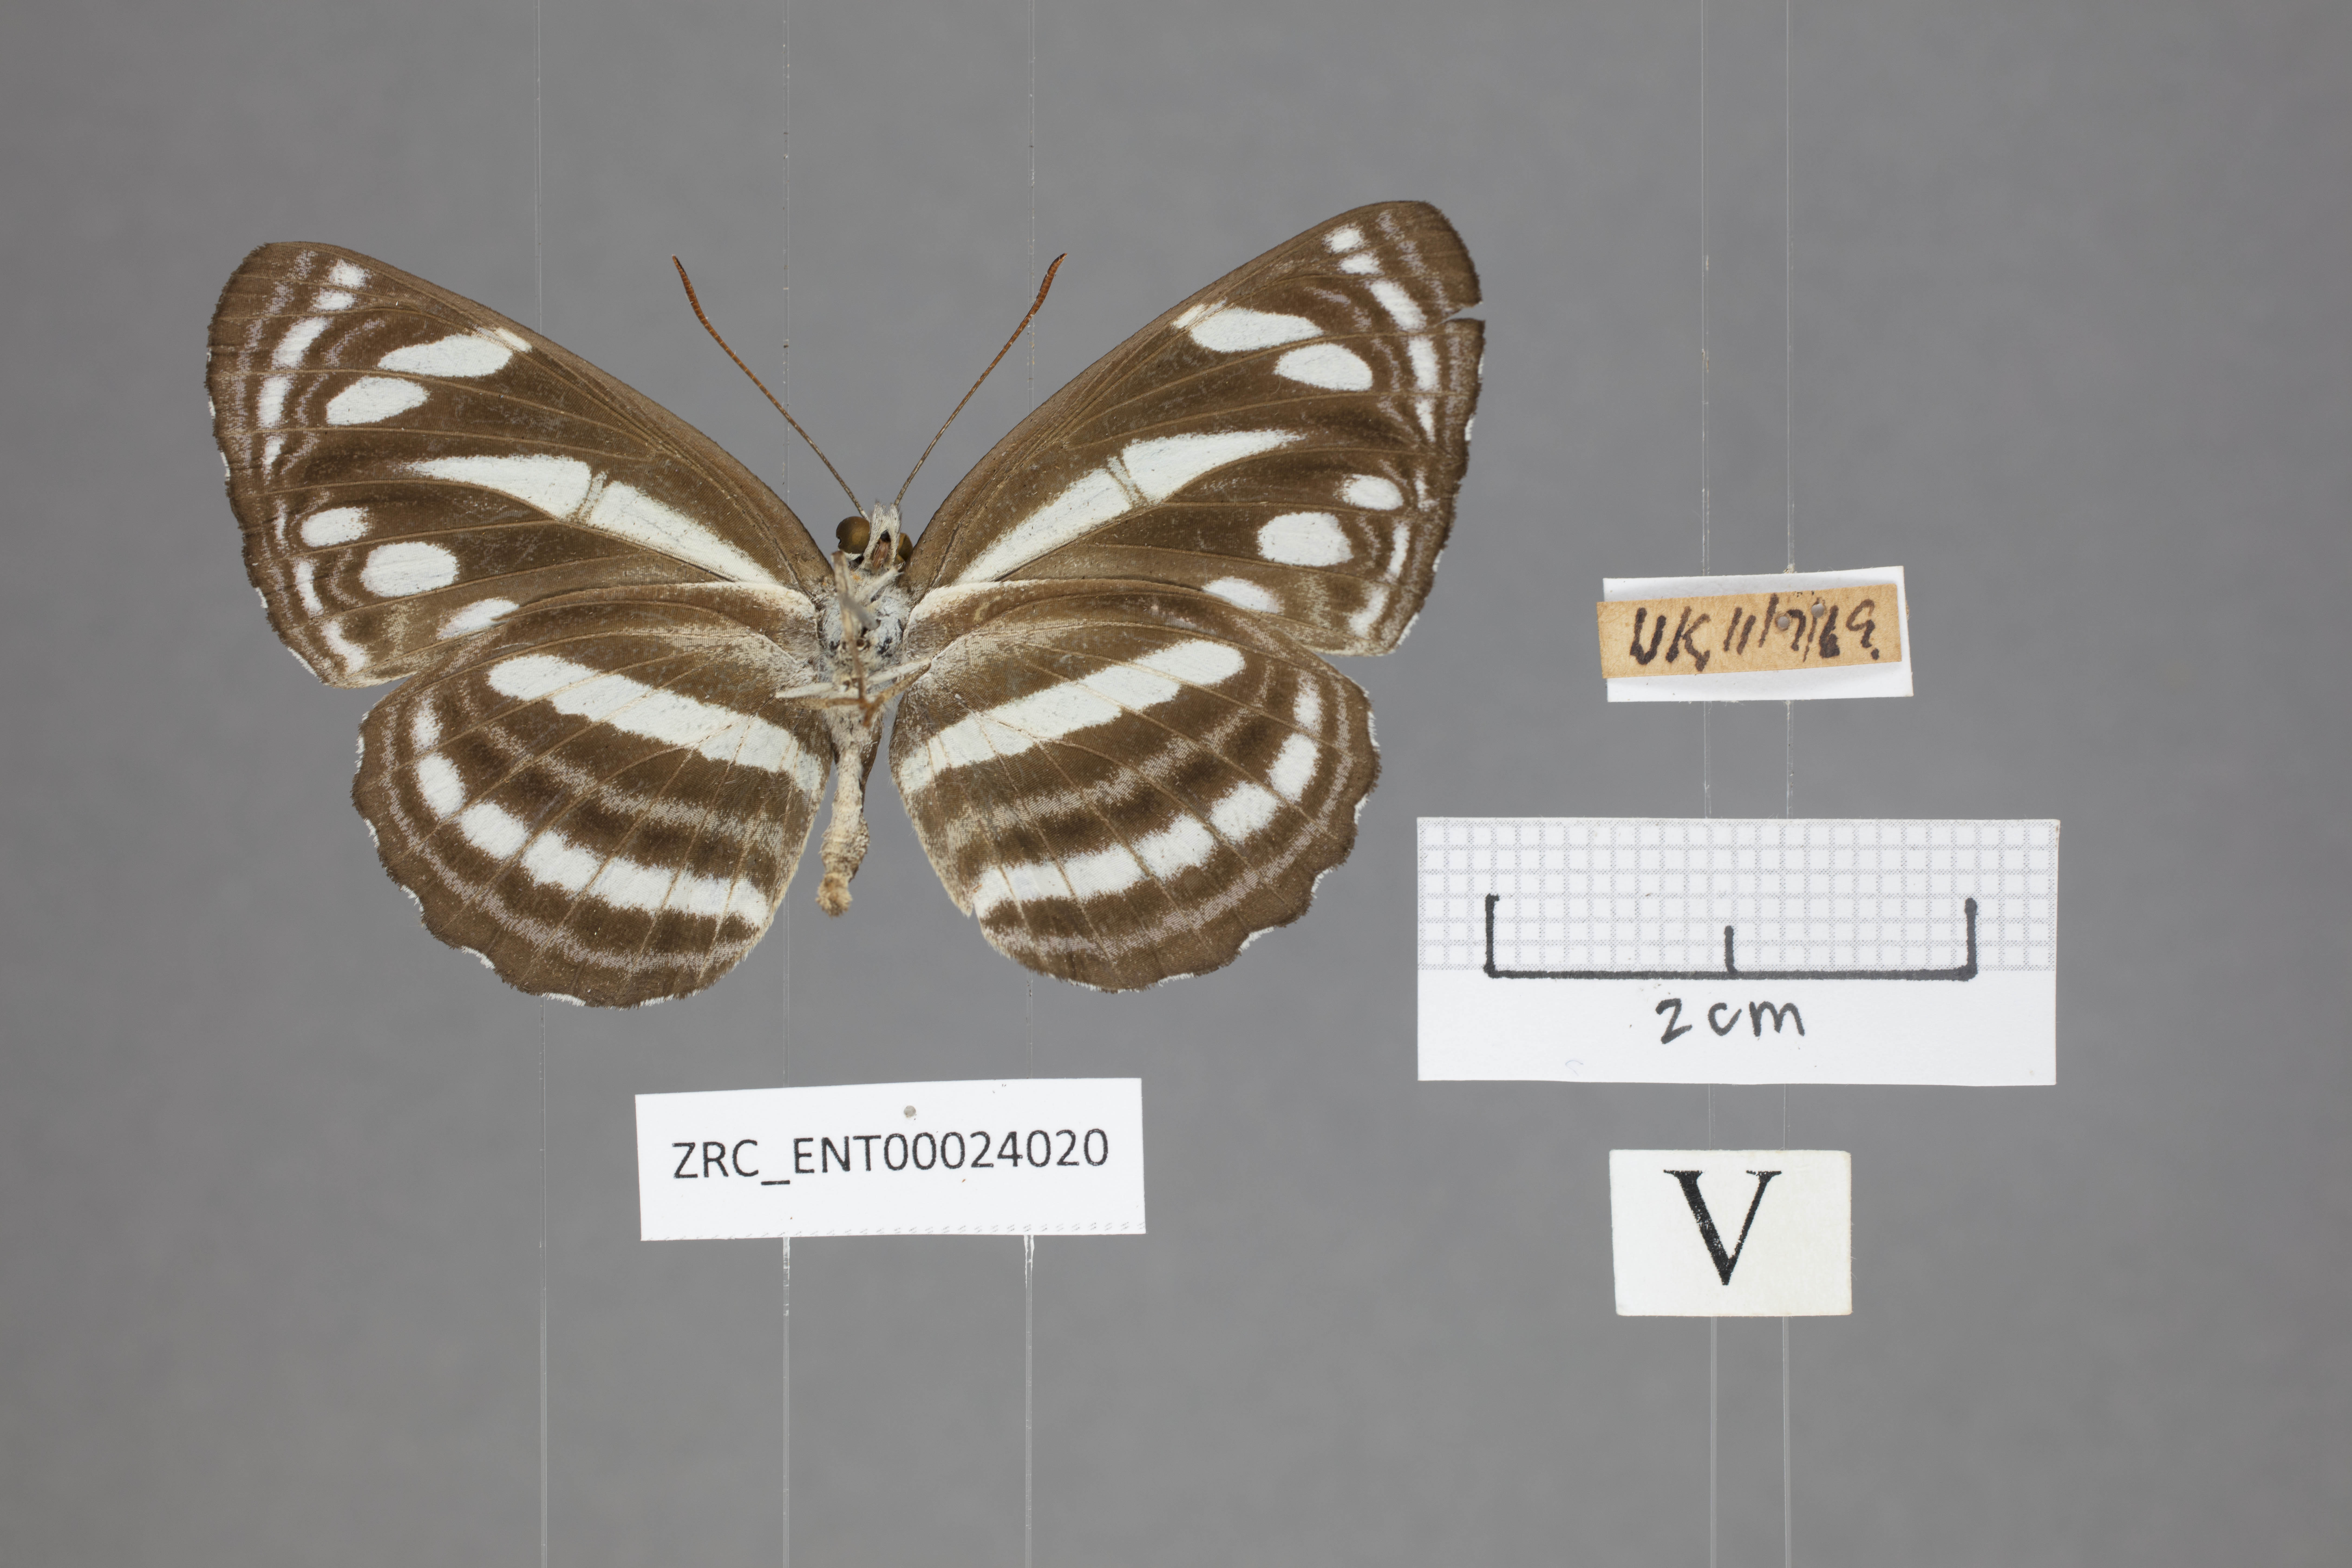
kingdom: Animalia
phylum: Arthropoda
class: Insecta
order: Lepidoptera
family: Nymphalidae
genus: Neptis
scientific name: Neptis leucoporus
